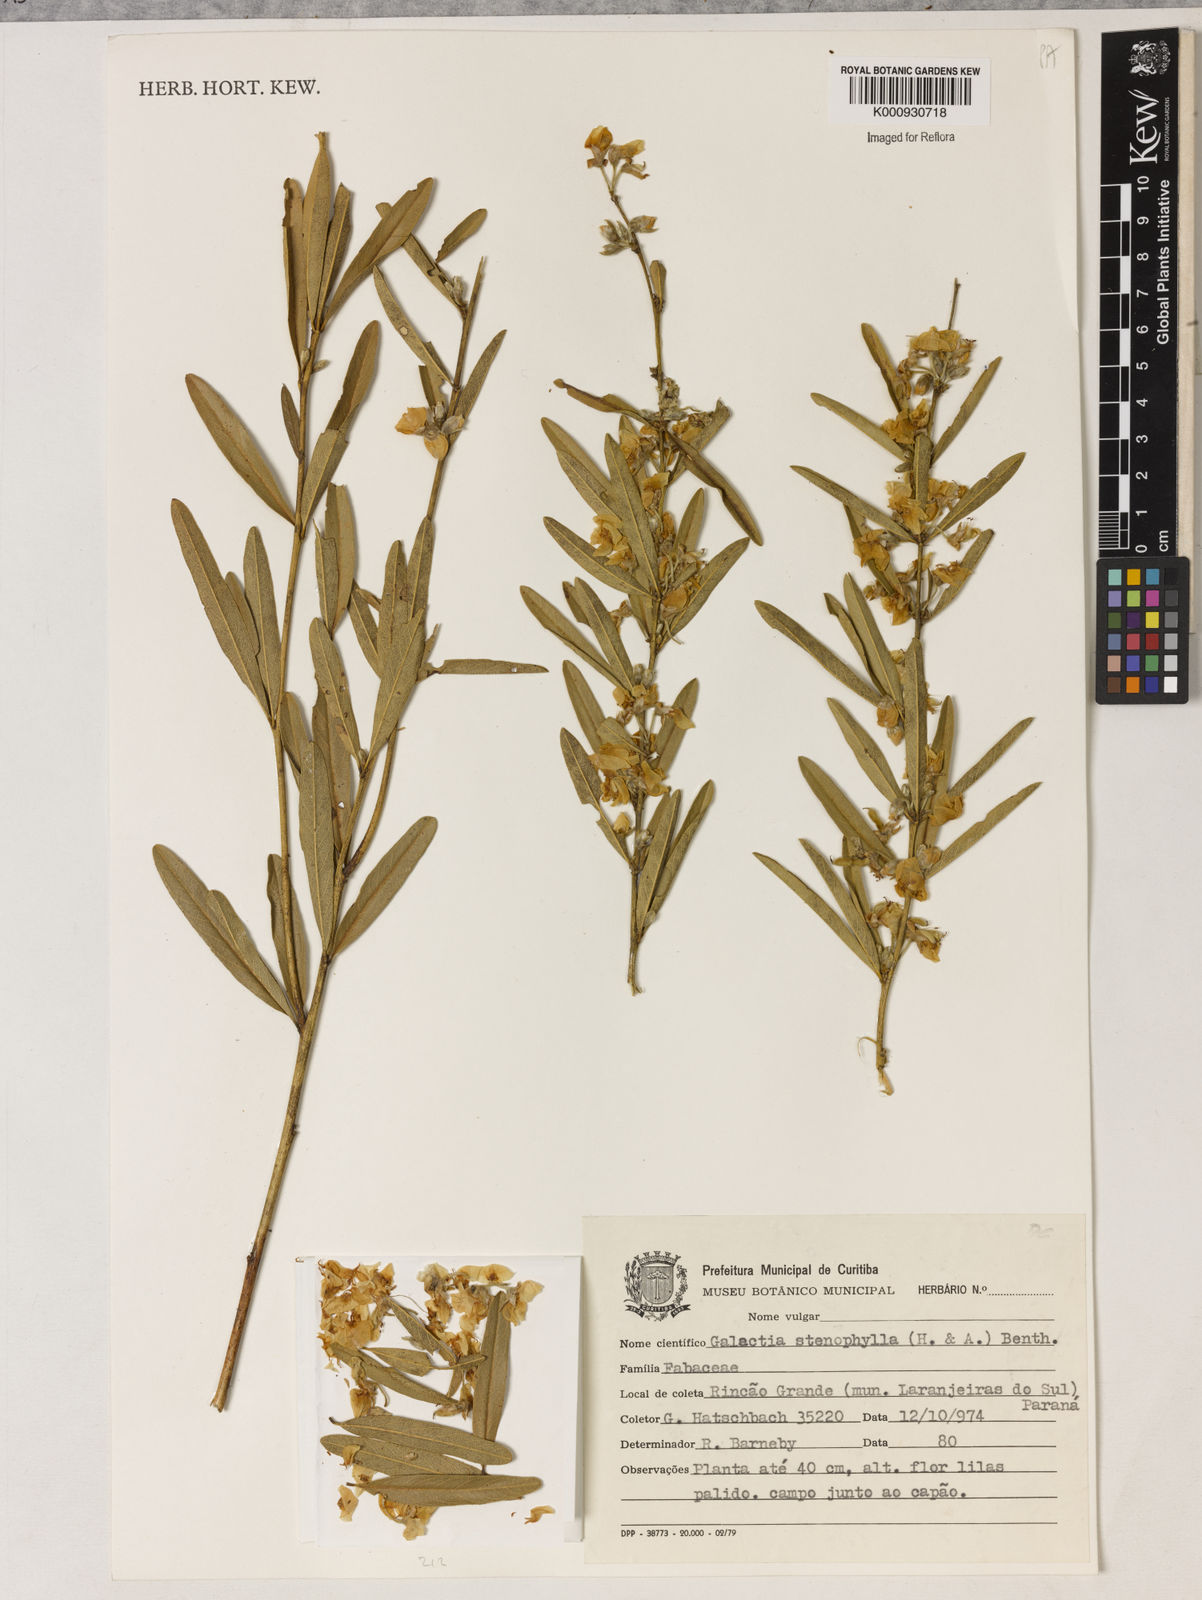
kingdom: Plantae
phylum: Tracheophyta
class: Liliopsida
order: Asparagales
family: Orchidaceae
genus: Pelexia
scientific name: Pelexia
